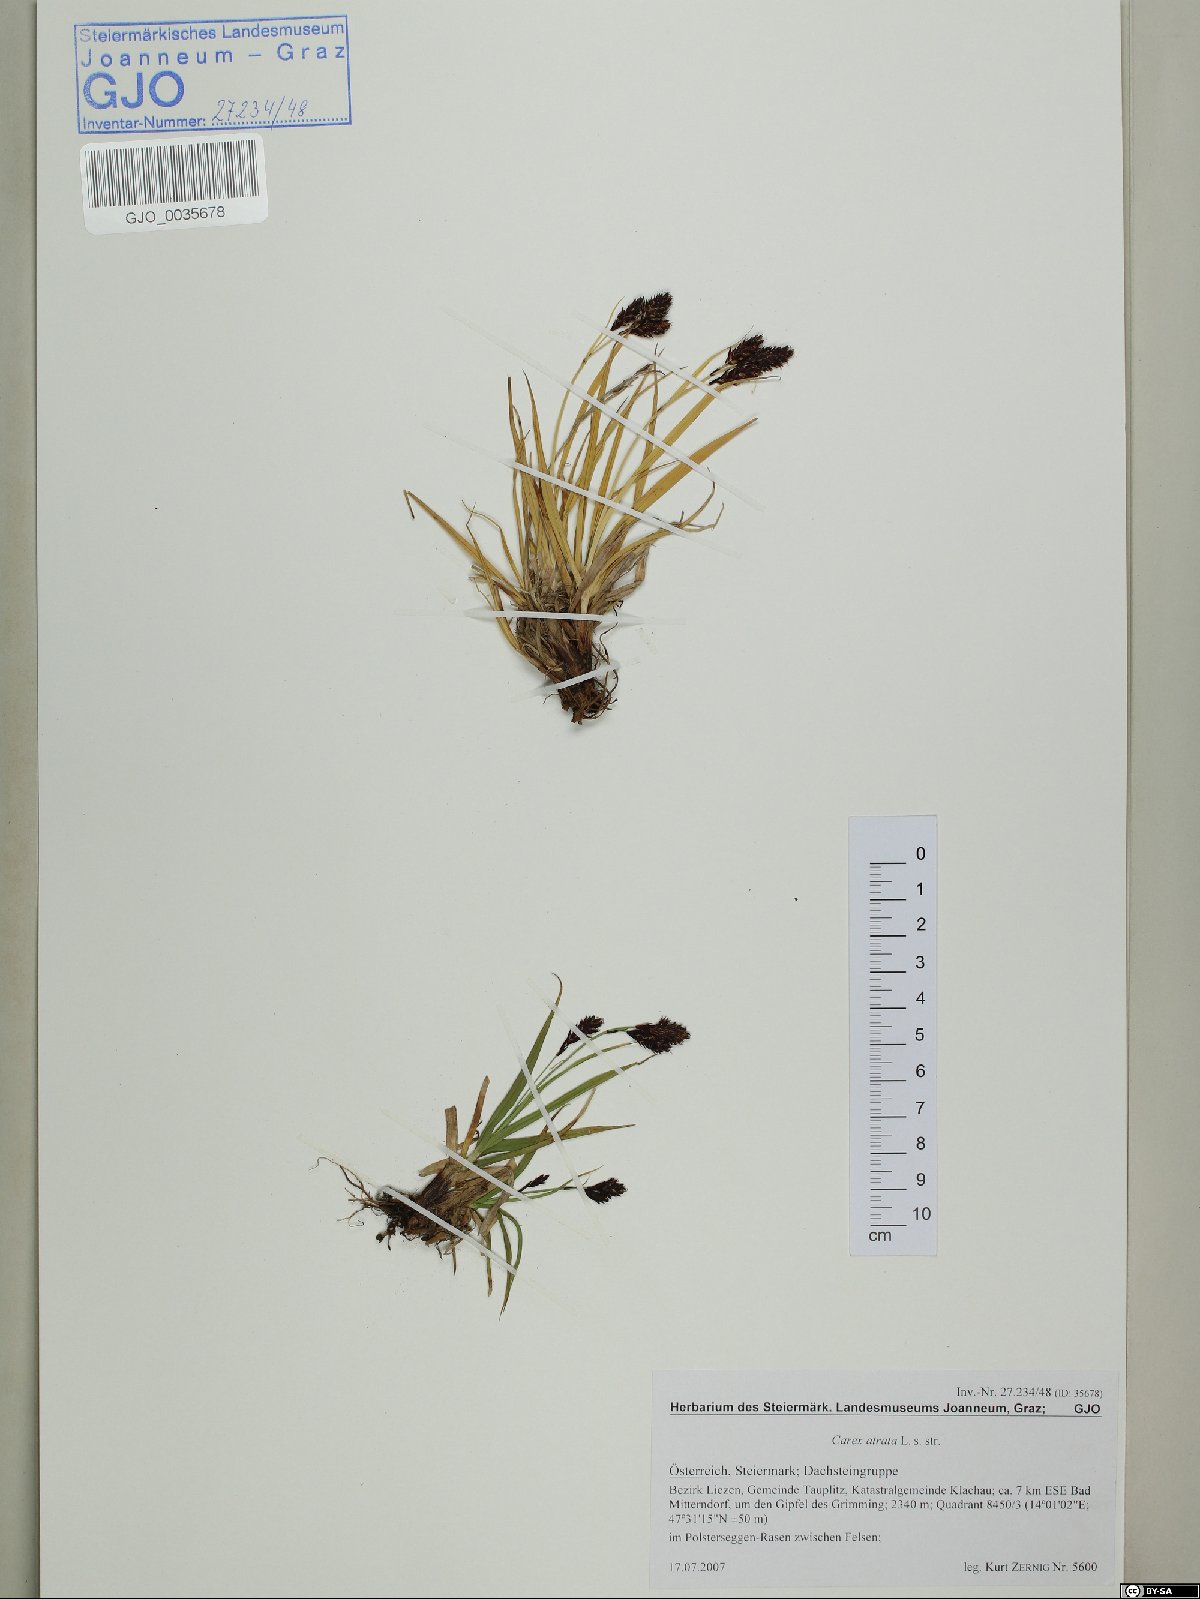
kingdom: Plantae
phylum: Tracheophyta
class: Liliopsida
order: Poales
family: Cyperaceae
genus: Carex
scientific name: Carex atrata
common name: Black alpine sedge
